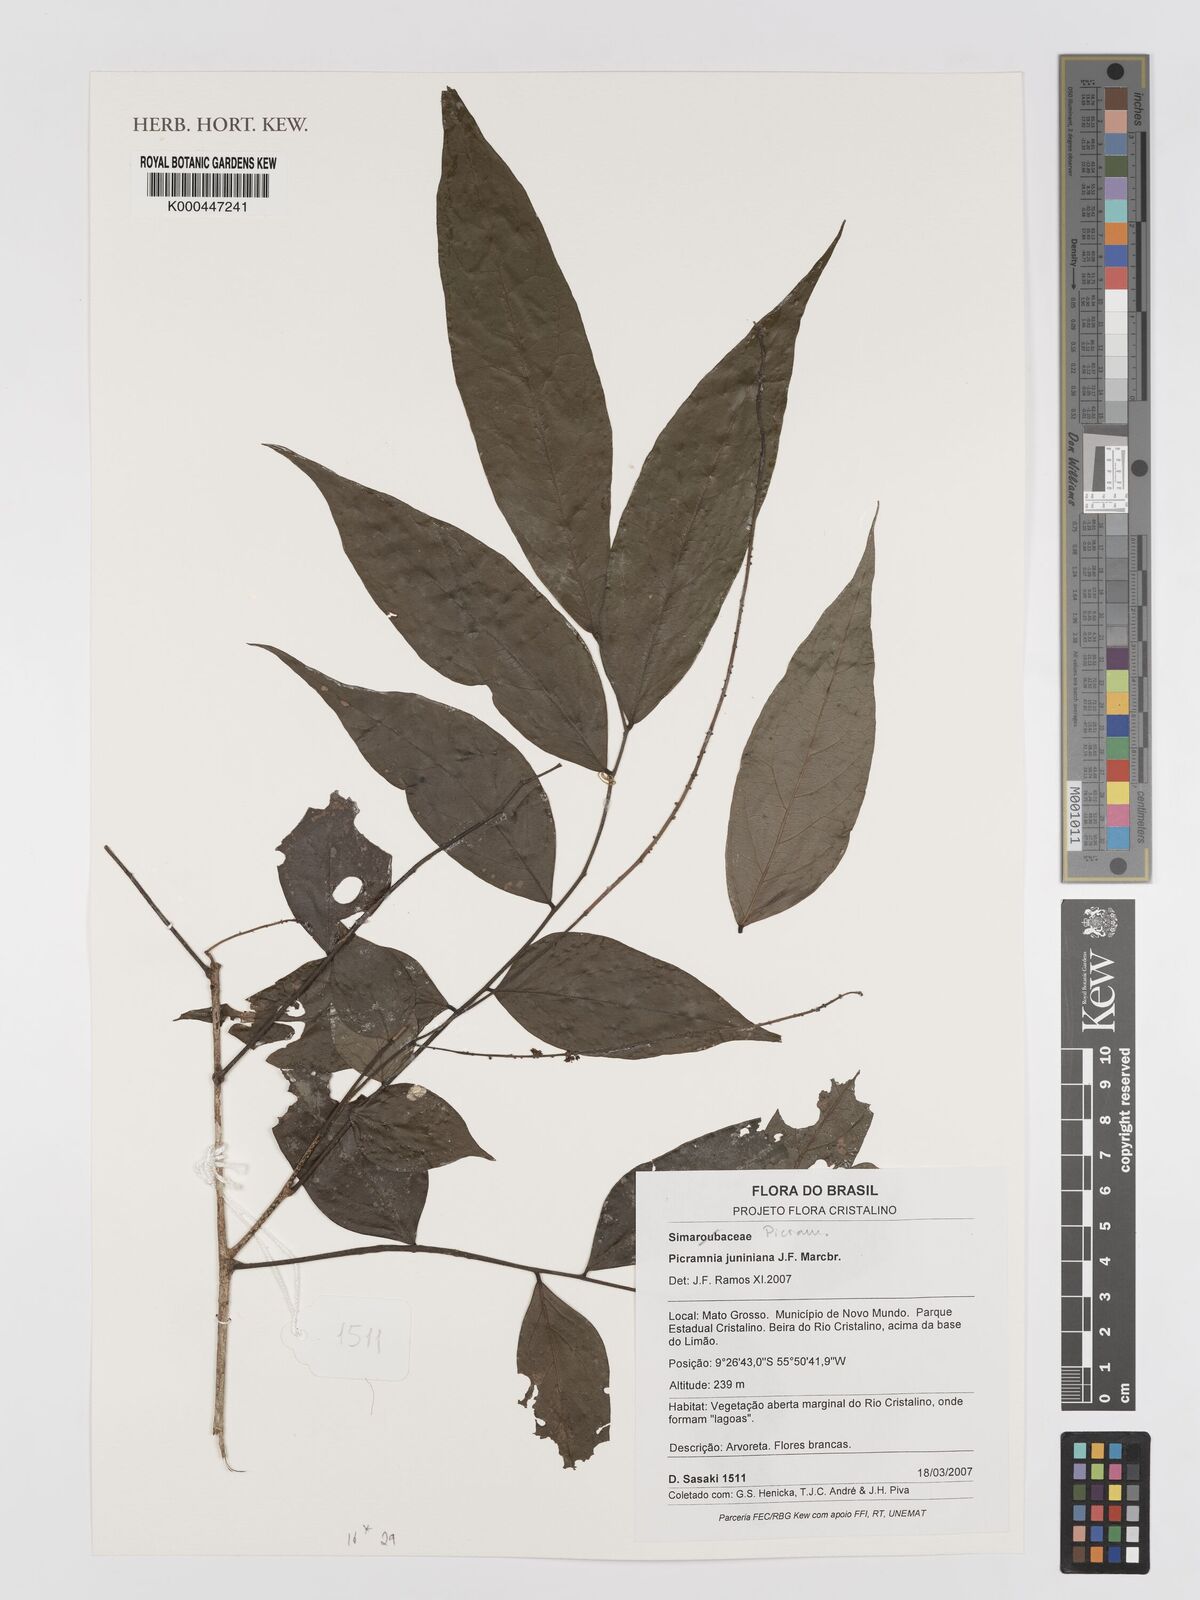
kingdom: Plantae
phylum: Tracheophyta
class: Magnoliopsida
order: Picramniales
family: Picramniaceae
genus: Picramnia
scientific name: Picramnia
